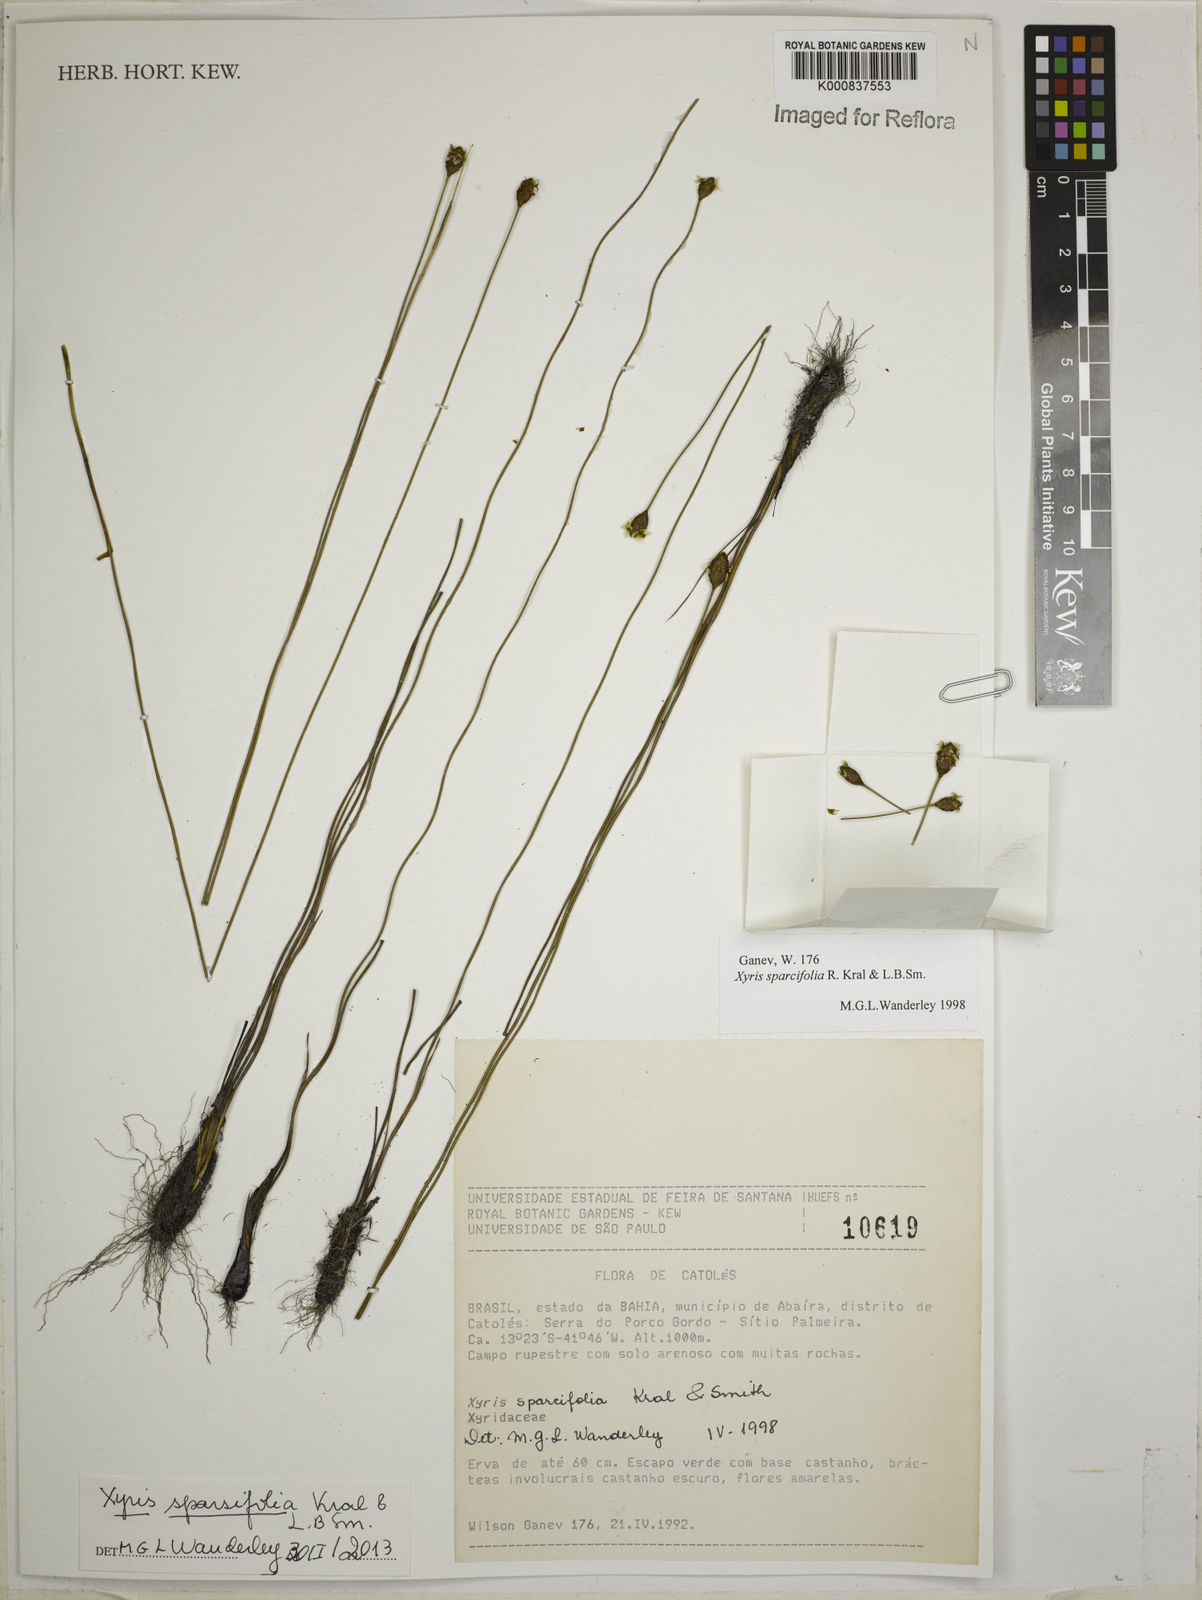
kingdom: Plantae
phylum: Tracheophyta
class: Liliopsida
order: Poales
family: Xyridaceae
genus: Xyris
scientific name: Xyris
